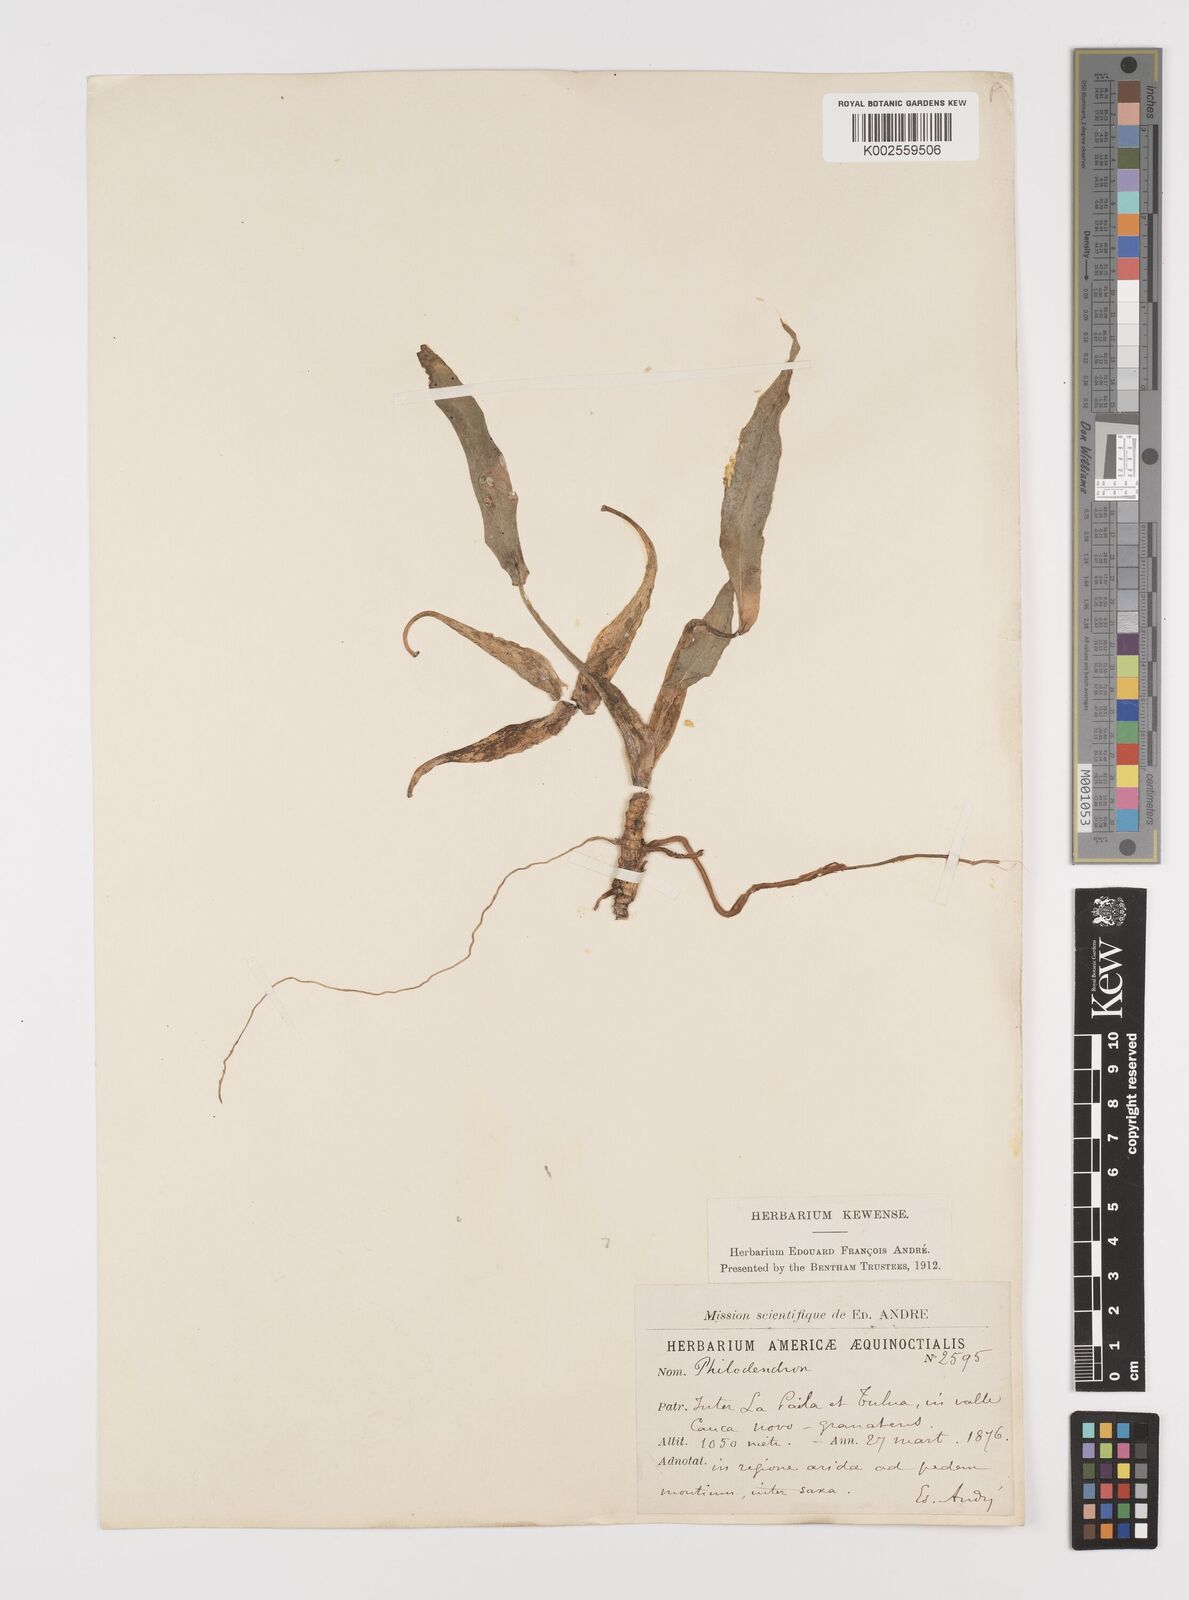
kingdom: Plantae
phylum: Tracheophyta
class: Liliopsida
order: Alismatales
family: Araceae
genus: Philodendron
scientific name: Philodendron
